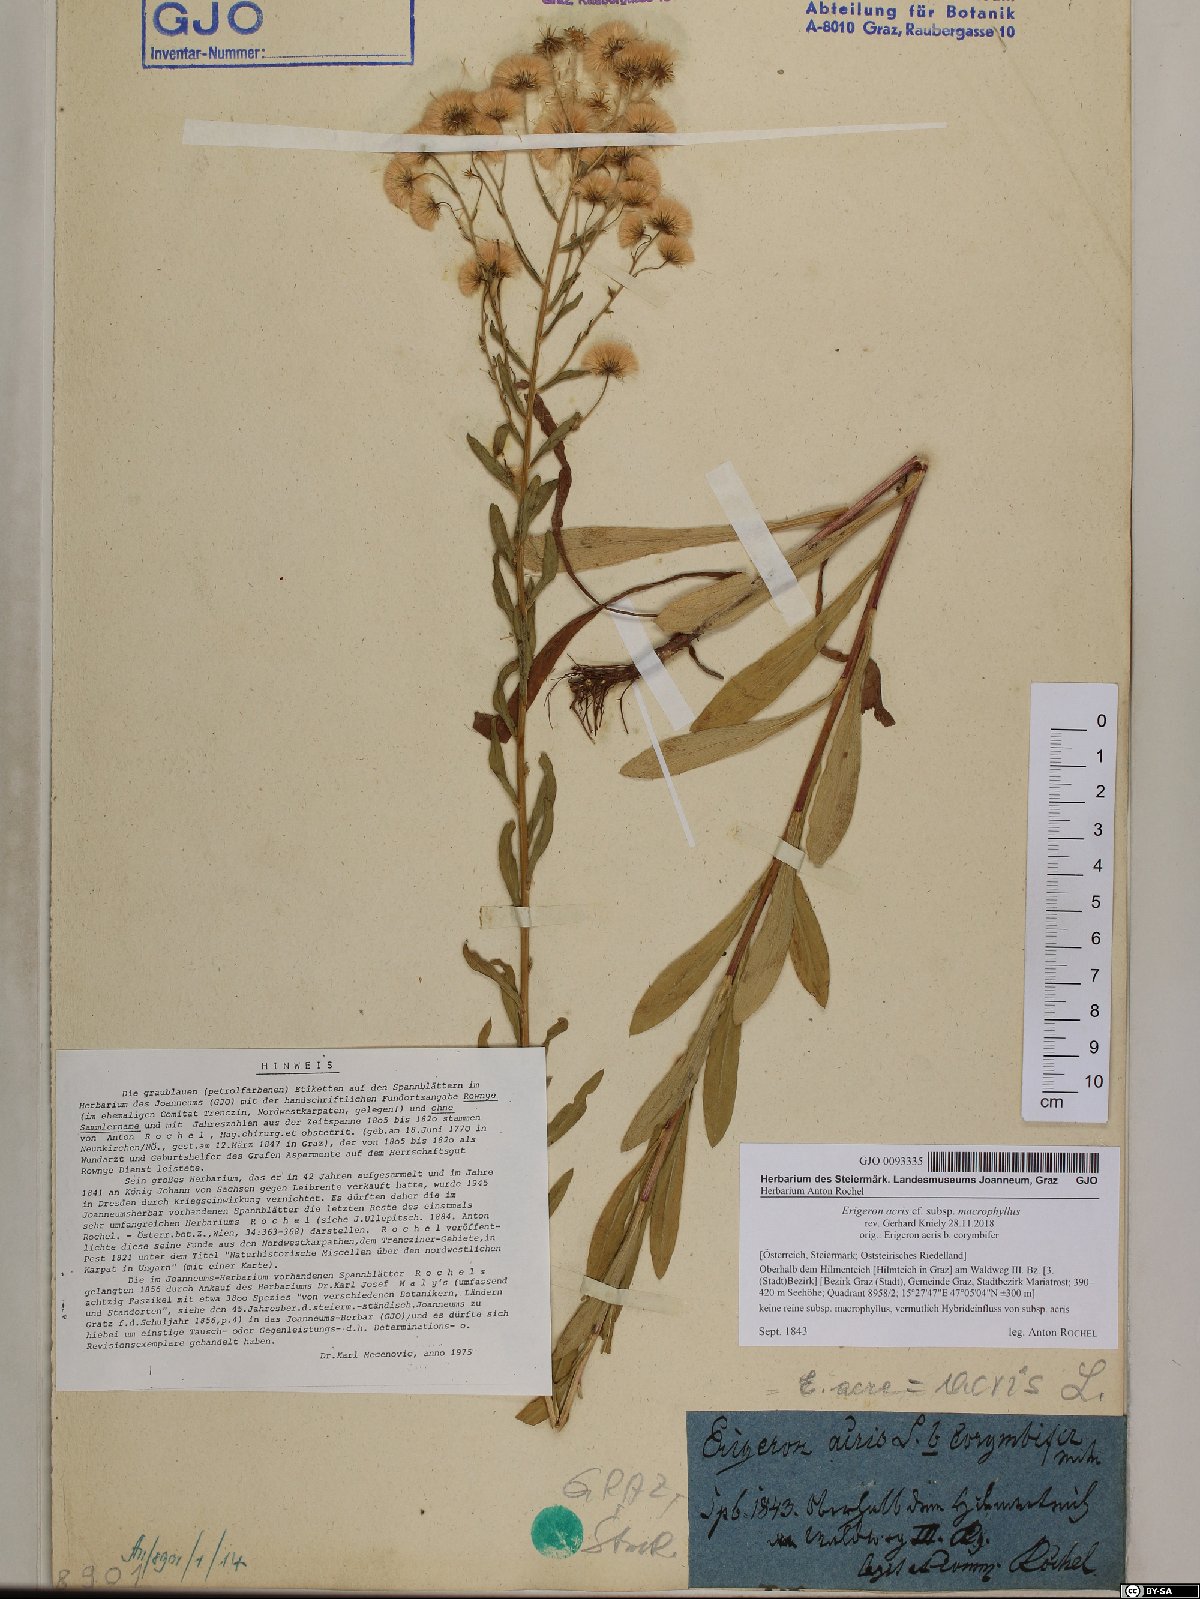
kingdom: Plantae
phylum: Tracheophyta
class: Magnoliopsida
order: Asterales
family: Asteraceae
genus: Erigeron
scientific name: Erigeron macrophyllus
